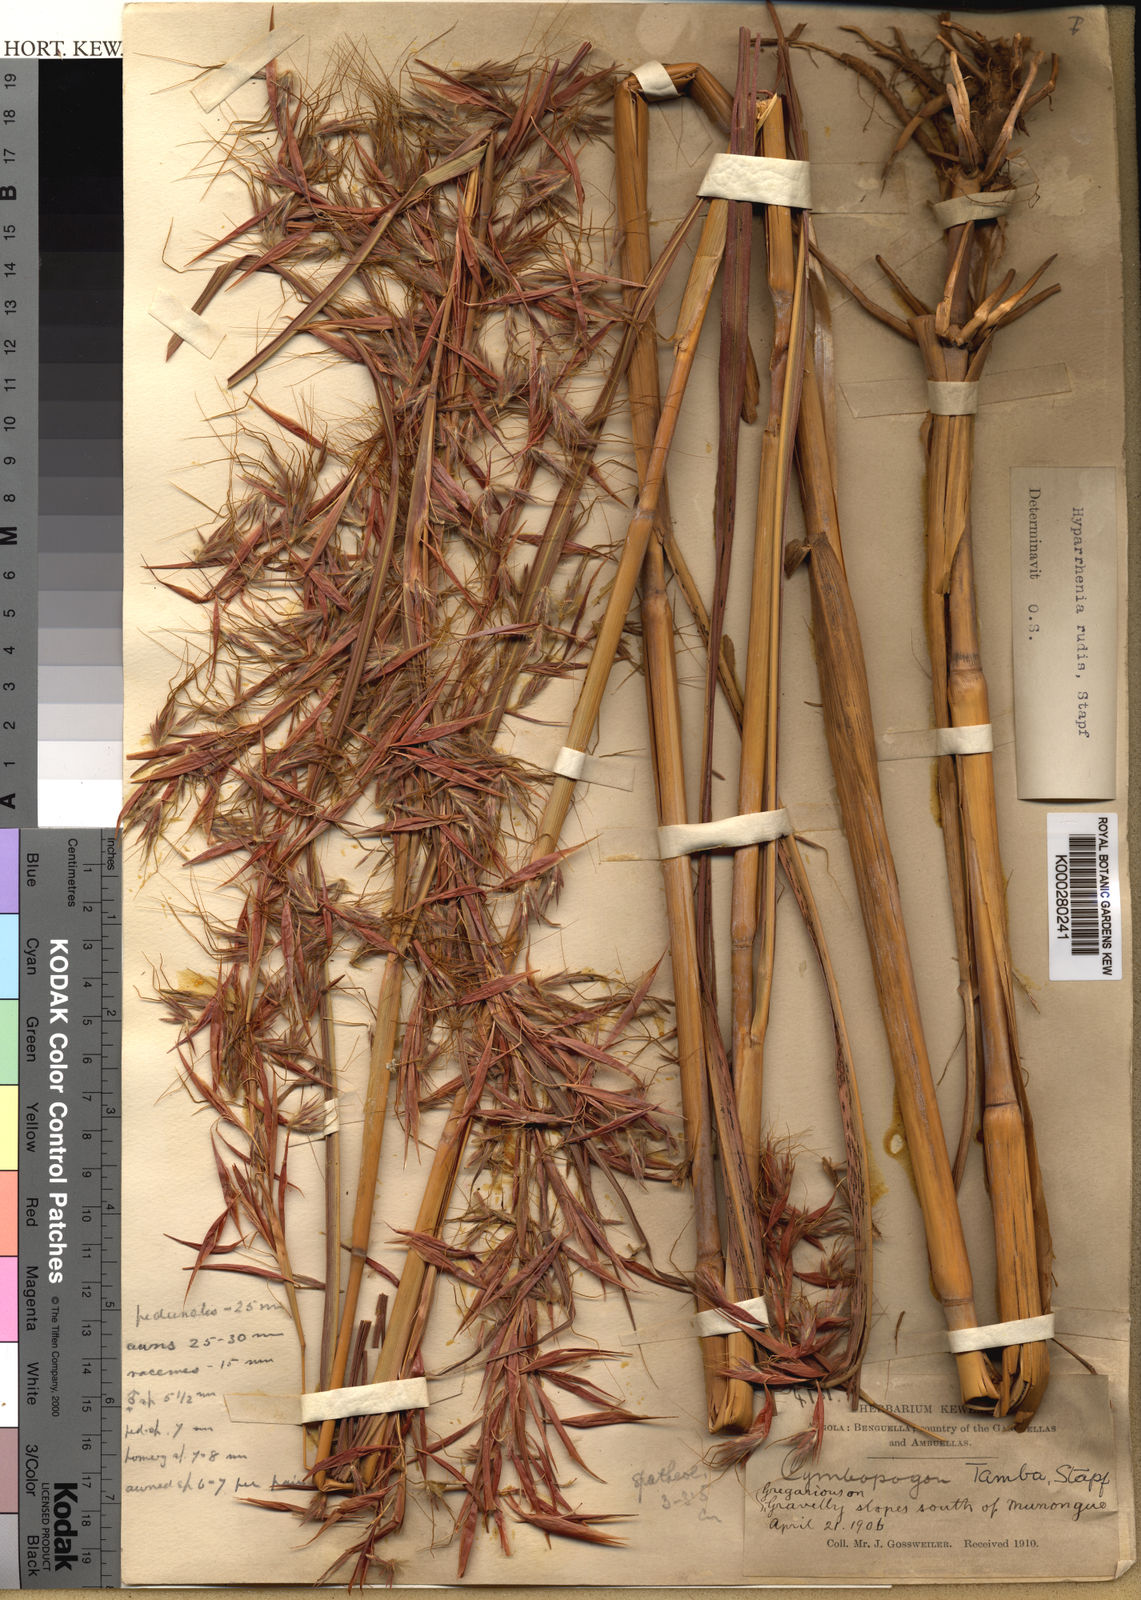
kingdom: Plantae
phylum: Tracheophyta
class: Liliopsida
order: Poales
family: Poaceae
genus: Hyparrhenia
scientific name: Hyparrhenia rudis
